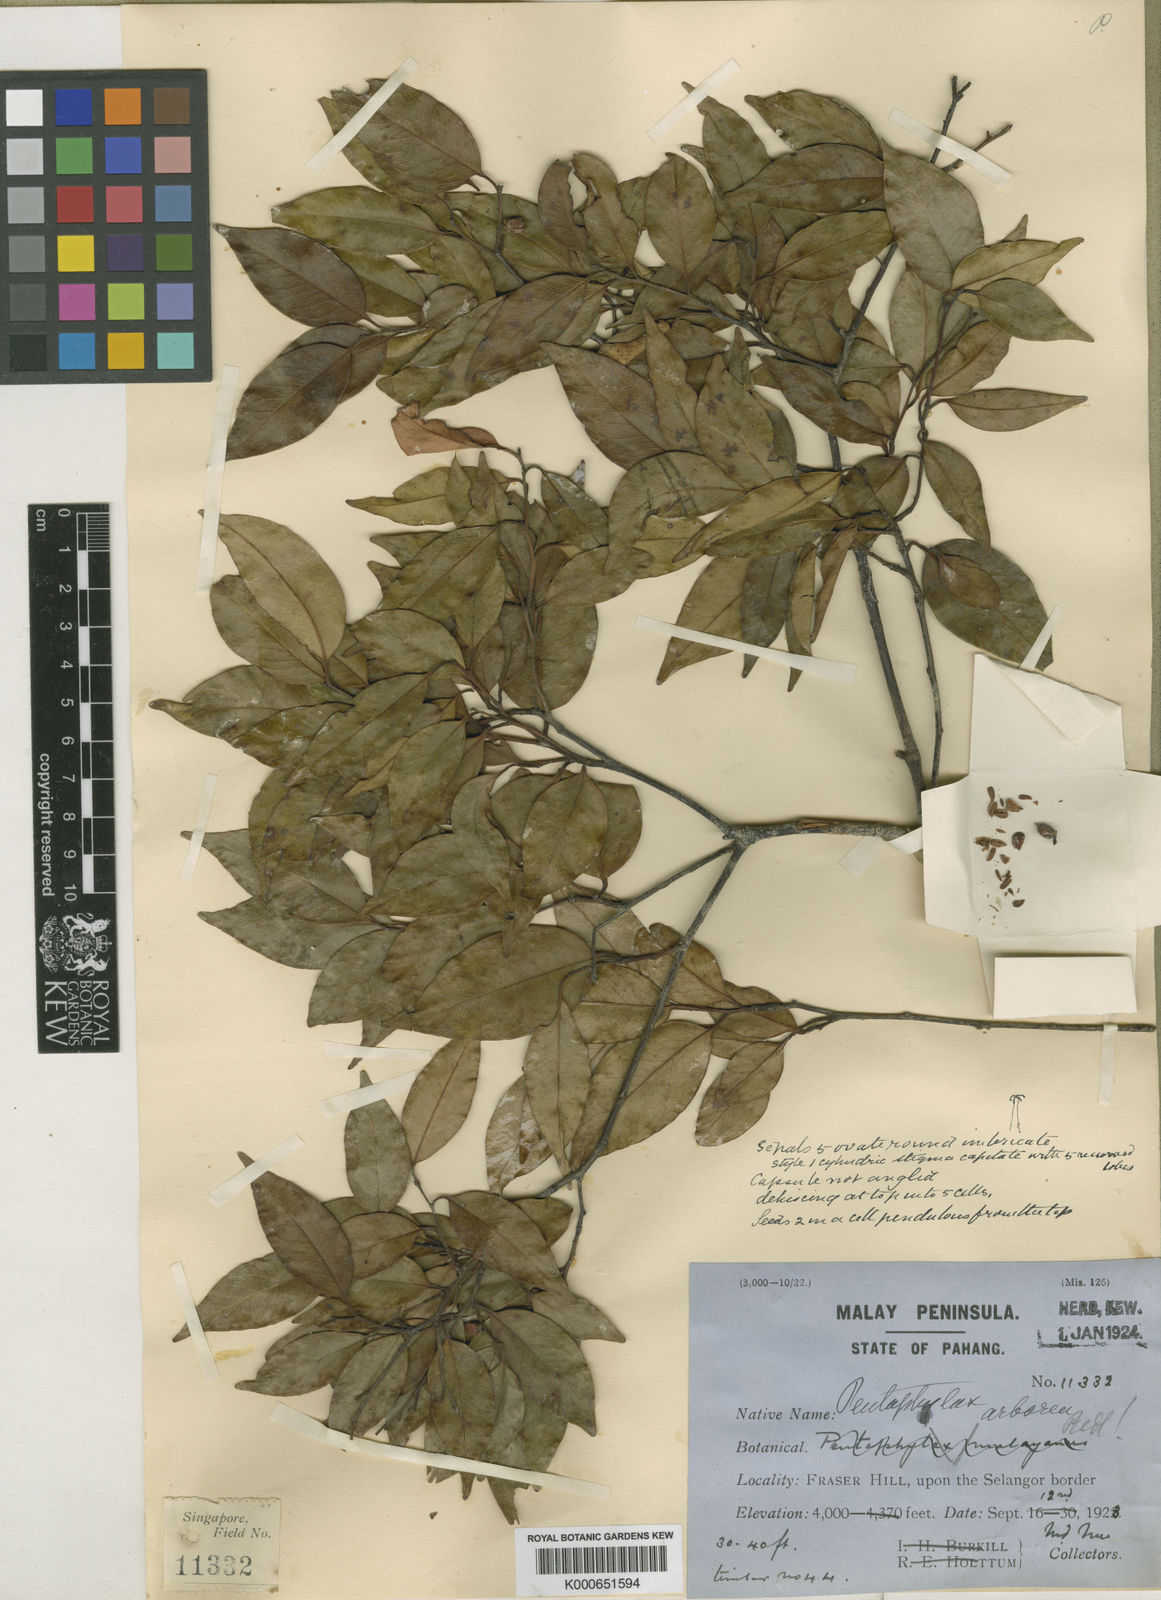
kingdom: Plantae
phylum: Tracheophyta
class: Magnoliopsida
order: Ericales
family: Pentaphylacaceae
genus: Pentaphylax
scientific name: Pentaphylax euryoides
